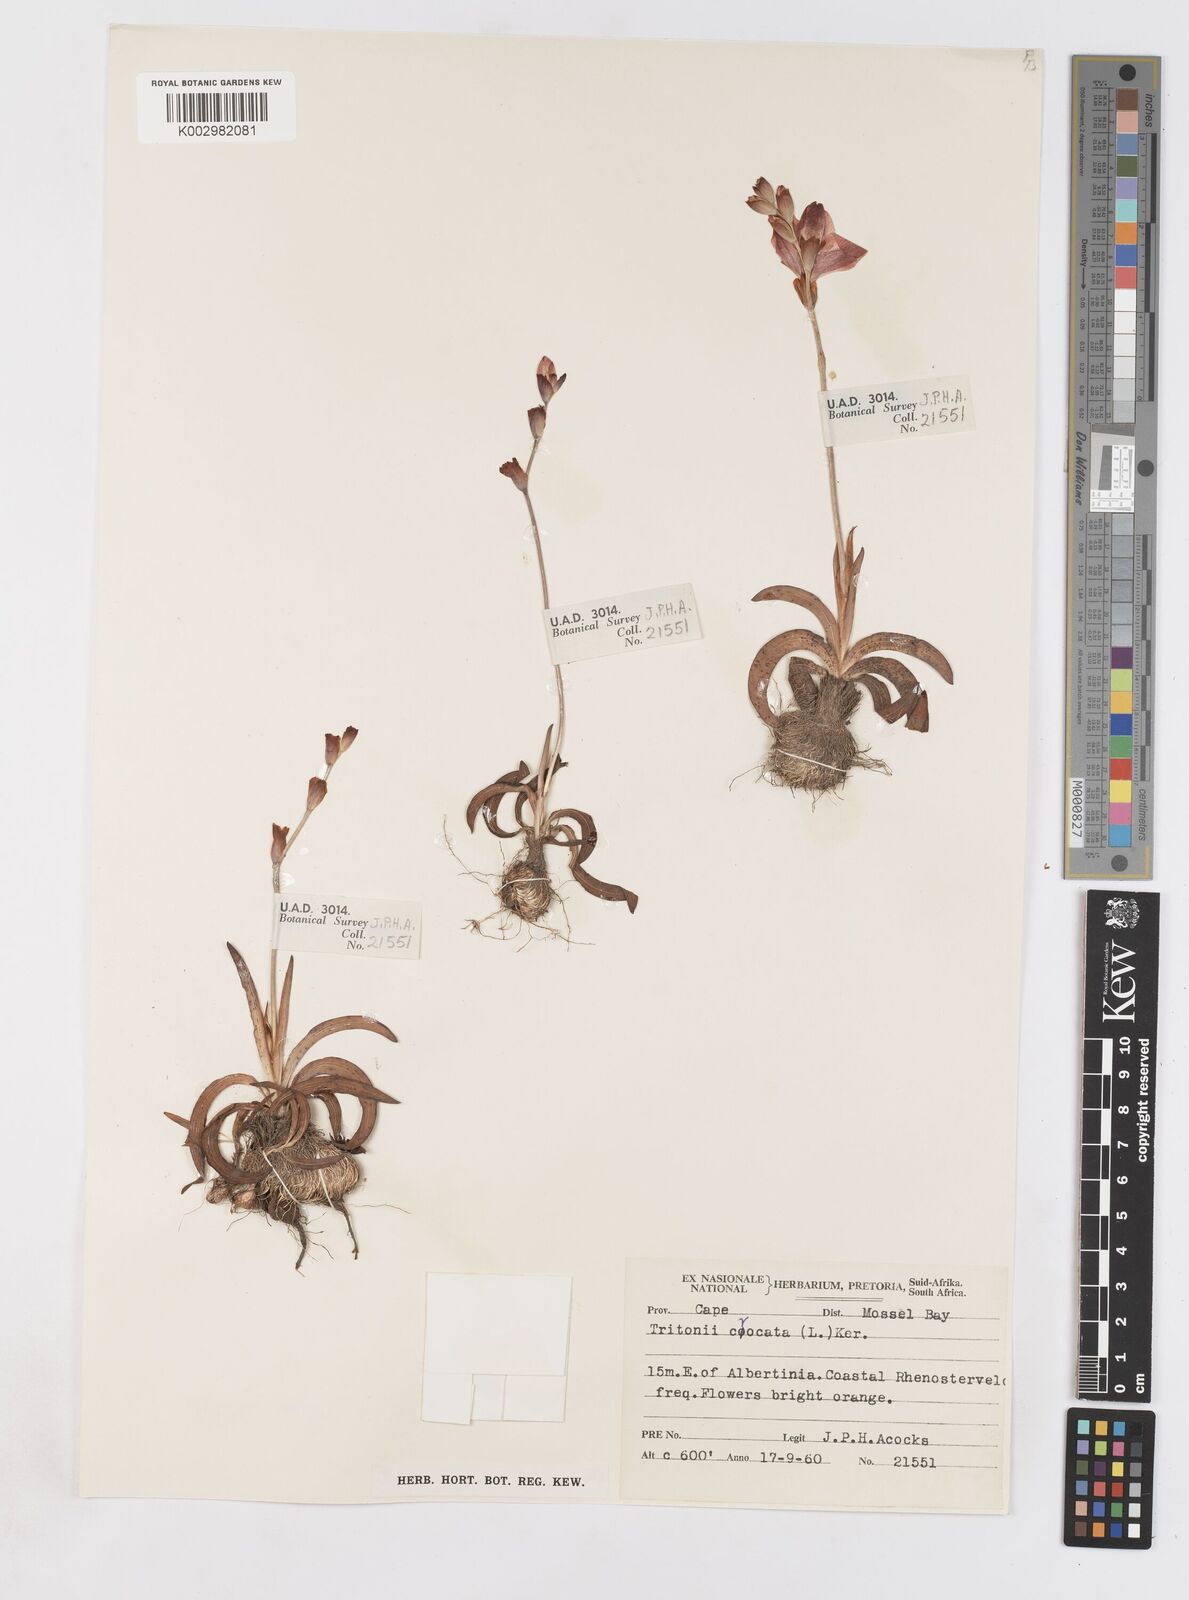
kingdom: Plantae
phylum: Tracheophyta
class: Liliopsida
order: Asparagales
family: Iridaceae
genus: Tritonia
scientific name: Tritonia crocata
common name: Flame-freesia
